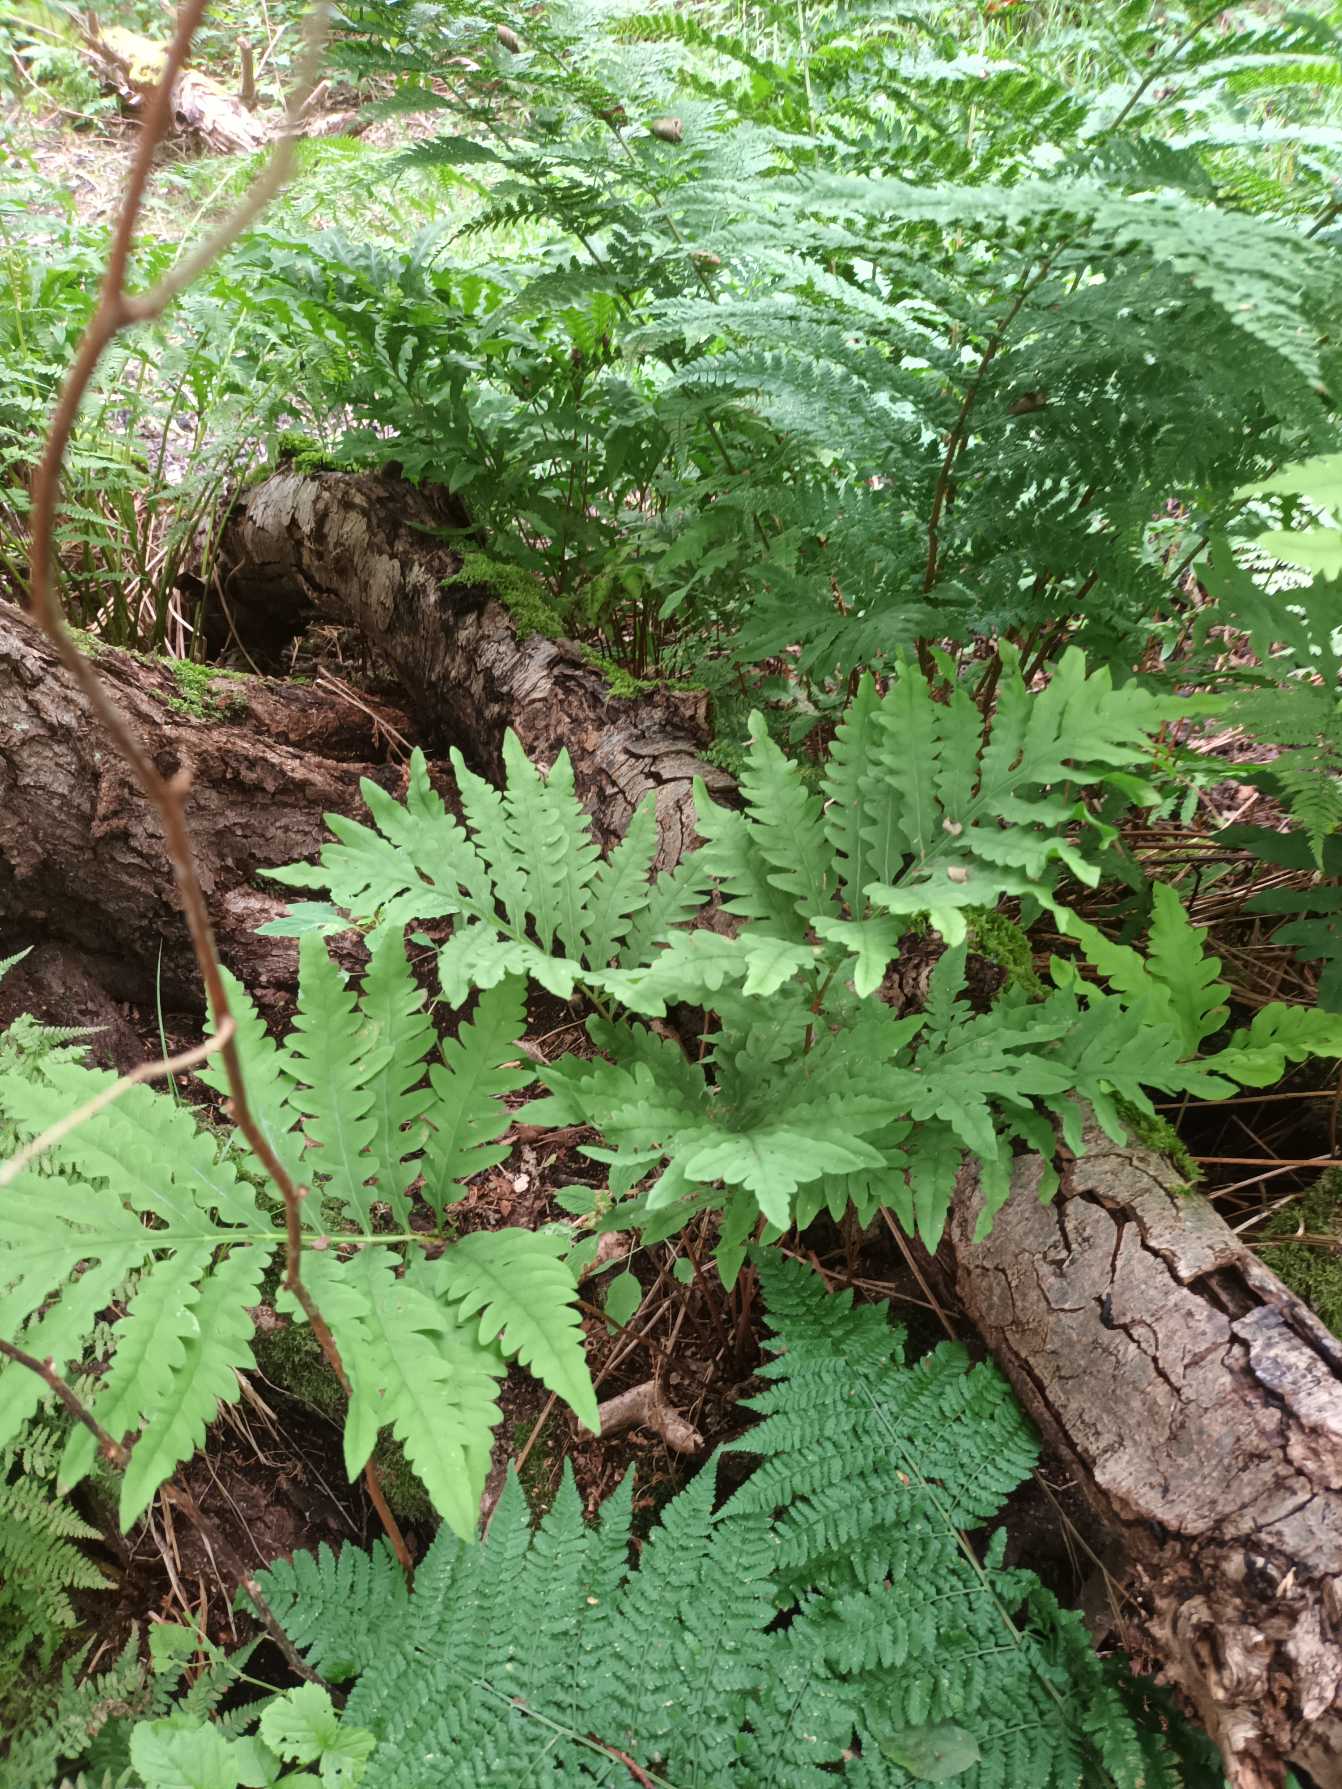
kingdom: Plantae
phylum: Tracheophyta
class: Polypodiopsida
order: Polypodiales
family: Onocleaceae
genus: Onoclea
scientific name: Onoclea sensibilis
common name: Druebregne
